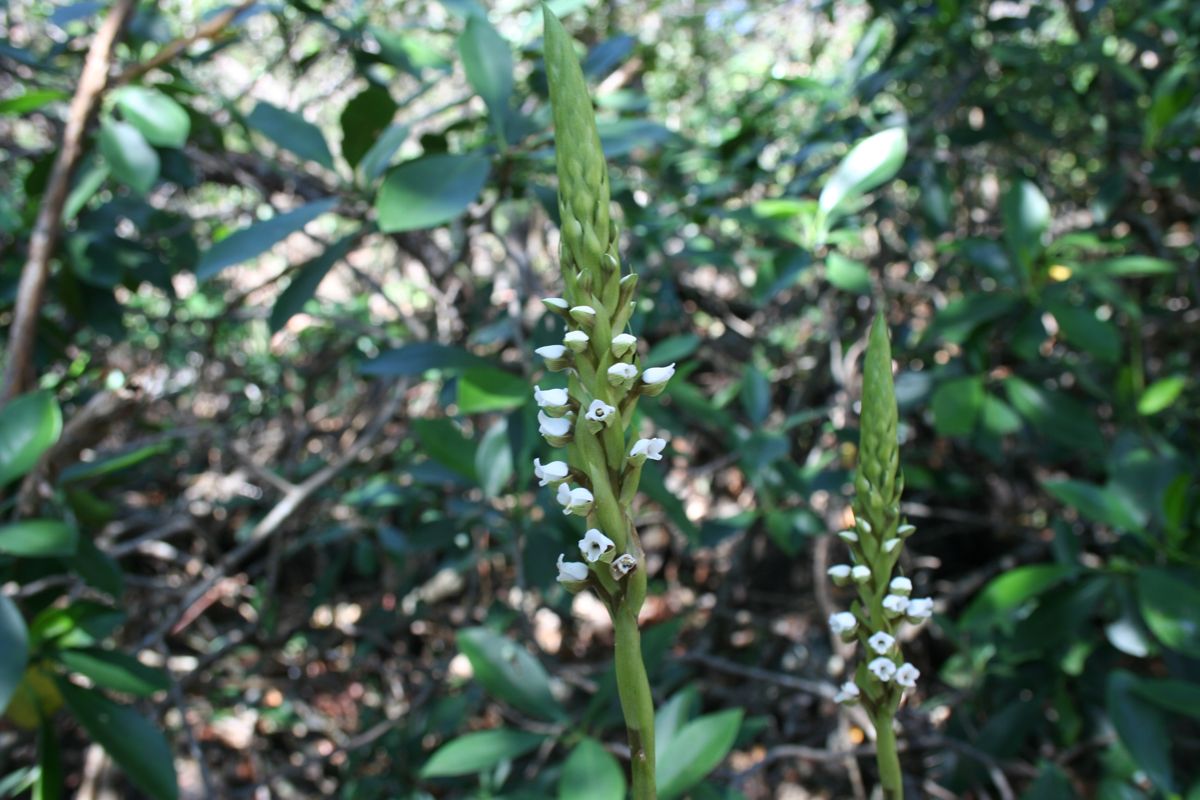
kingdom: Plantae
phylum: Tracheophyta
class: Liliopsida
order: Asparagales
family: Orchidaceae
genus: Aulosepalum
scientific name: Aulosepalum hemichrea
